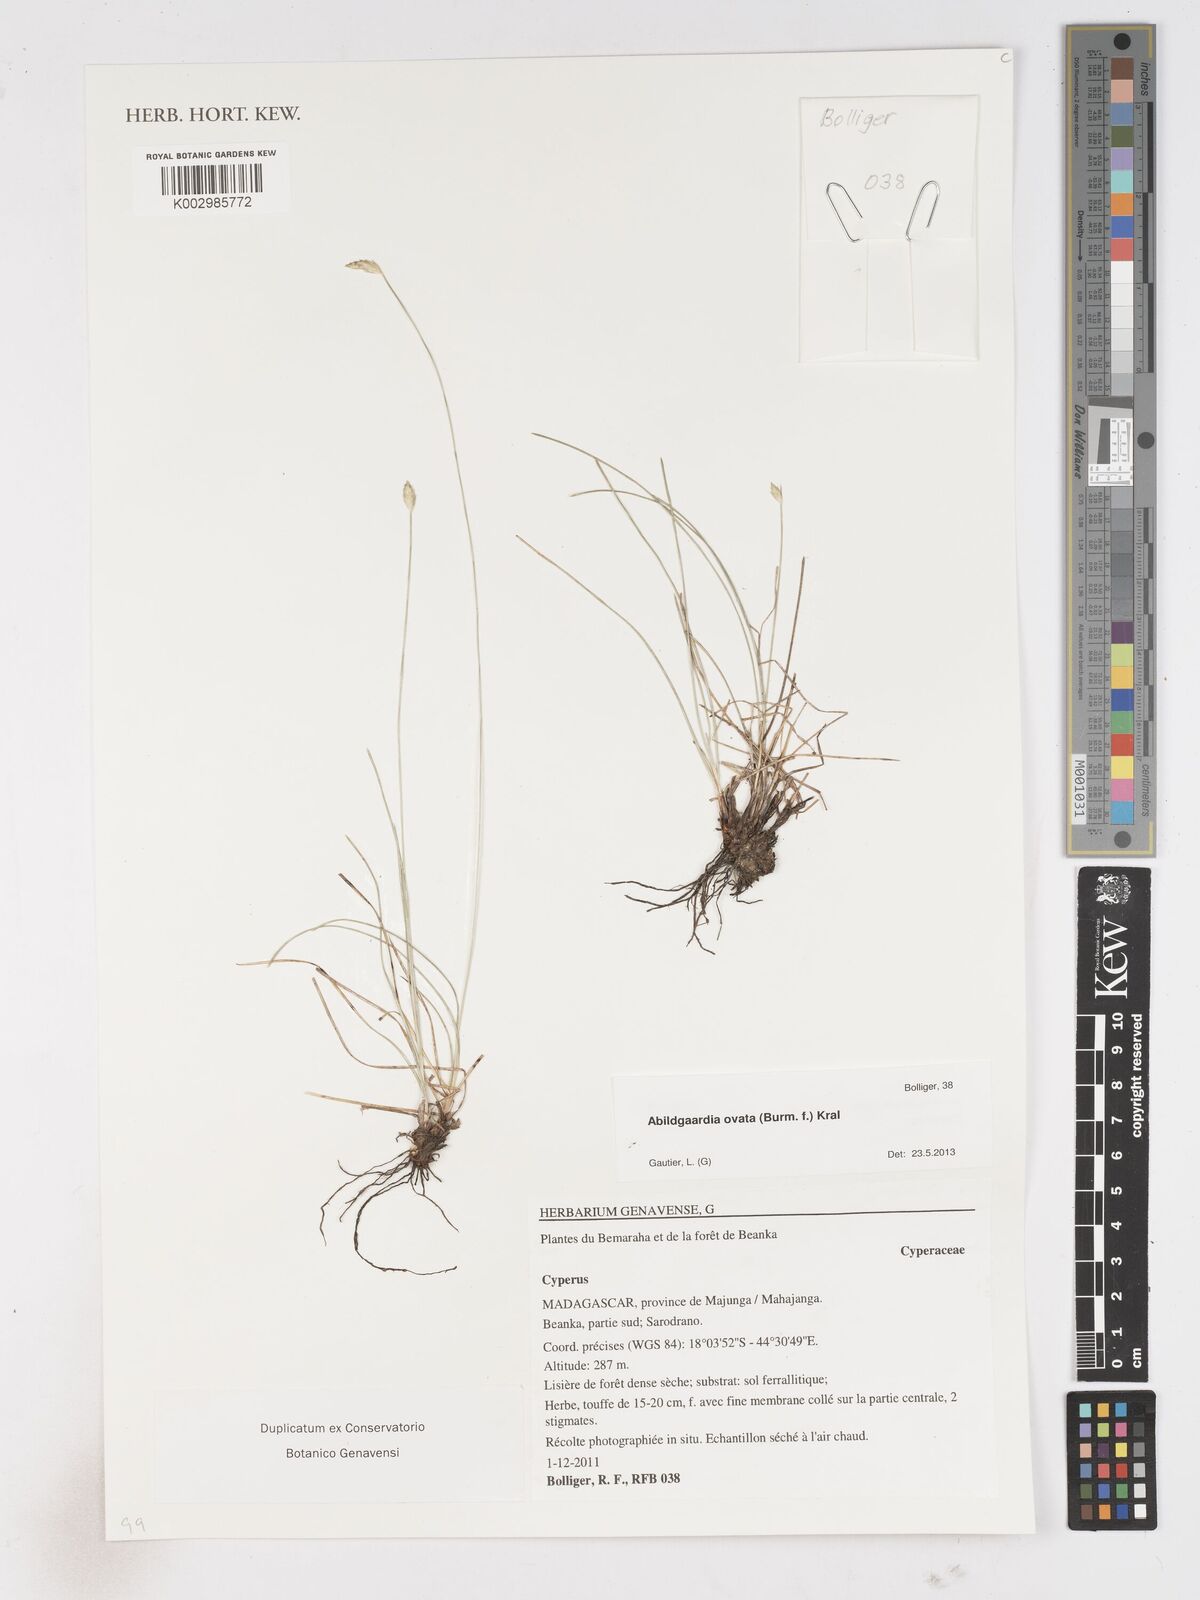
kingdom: Plantae
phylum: Tracheophyta
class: Liliopsida
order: Poales
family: Cyperaceae
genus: Abildgaardia
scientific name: Abildgaardia ovata
